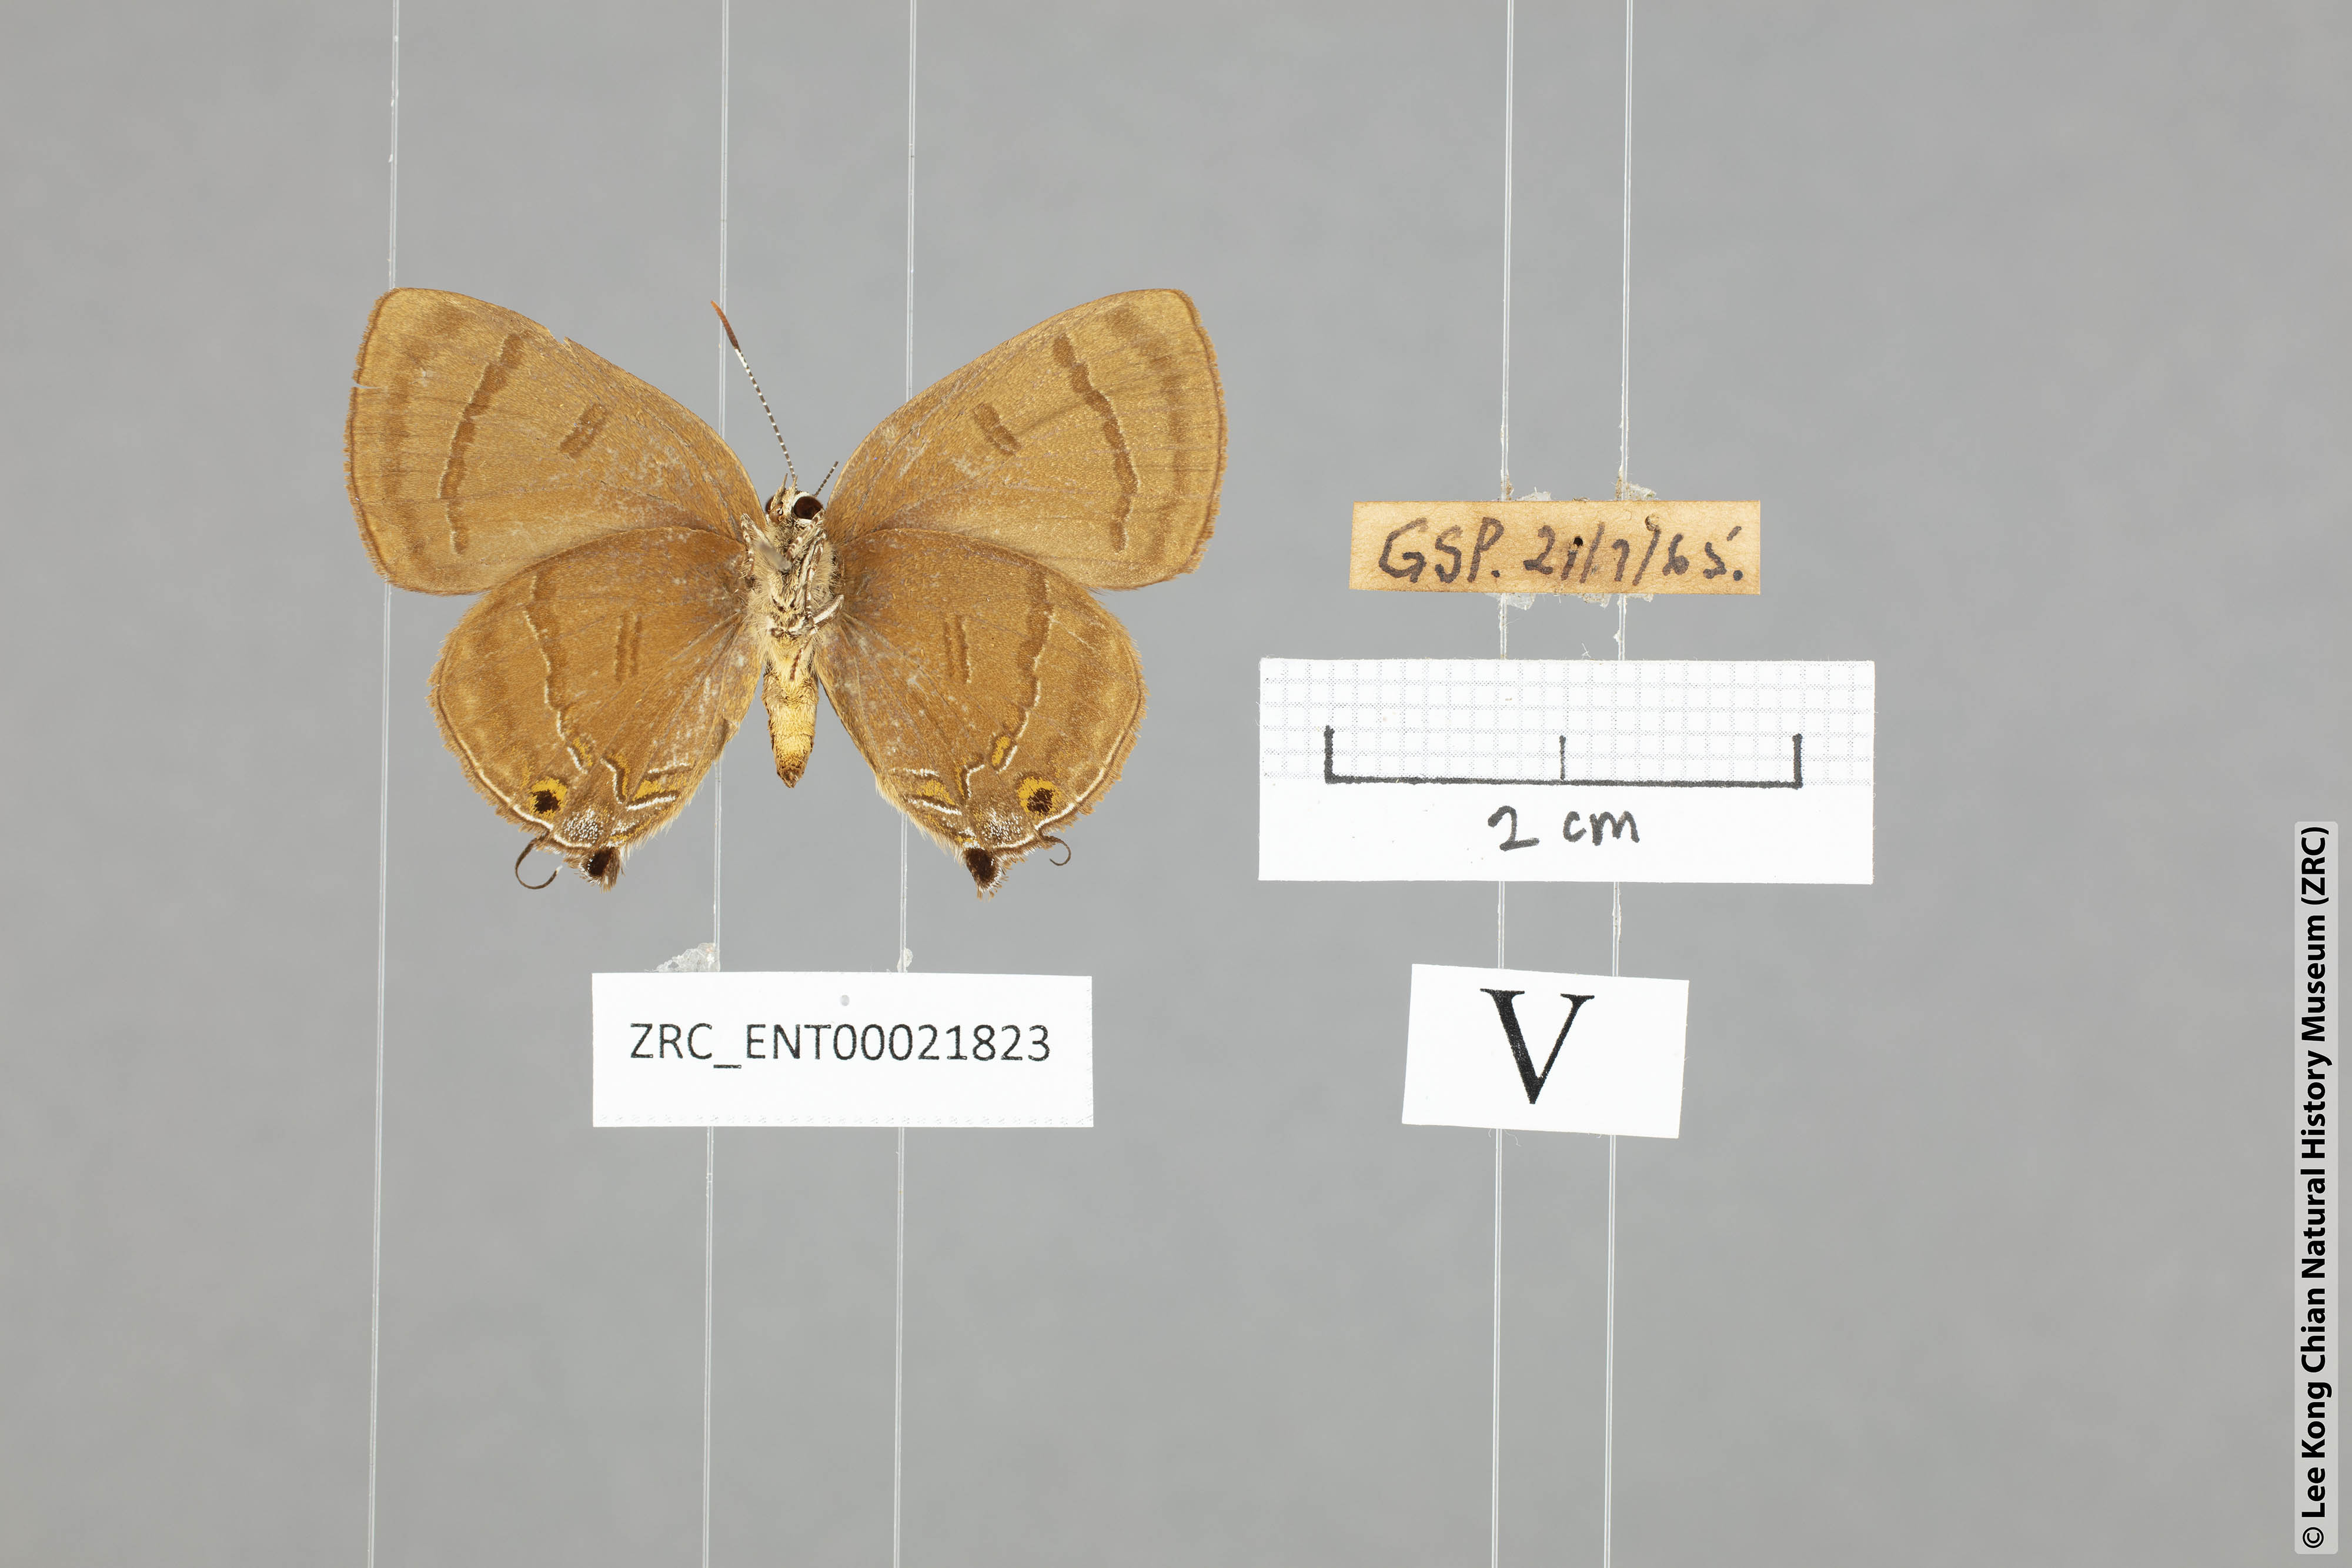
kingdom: Animalia
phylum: Arthropoda
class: Insecta
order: Lepidoptera
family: Lycaenidae
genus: Rapala
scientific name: Rapala rhoecus
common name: Brilliant flash
